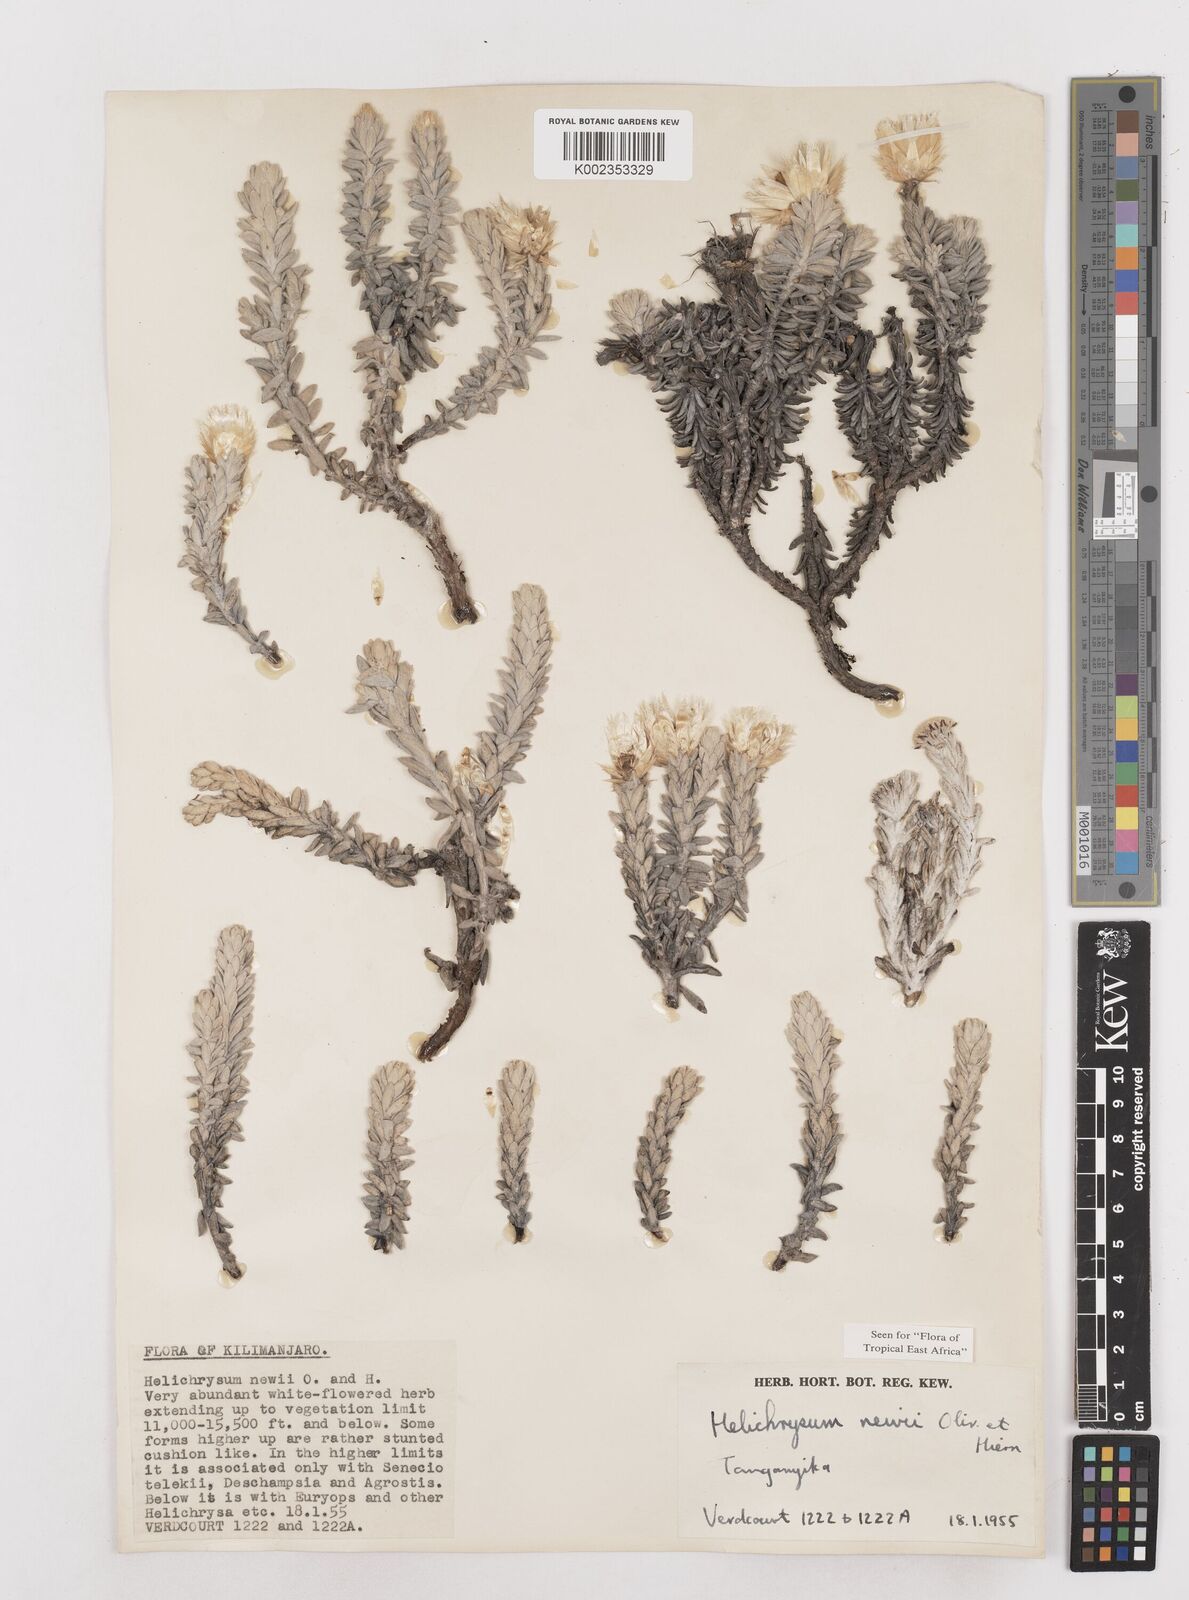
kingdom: Plantae
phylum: Tracheophyta
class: Magnoliopsida
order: Asterales
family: Asteraceae
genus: Helichrysum
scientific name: Helichrysum newii
